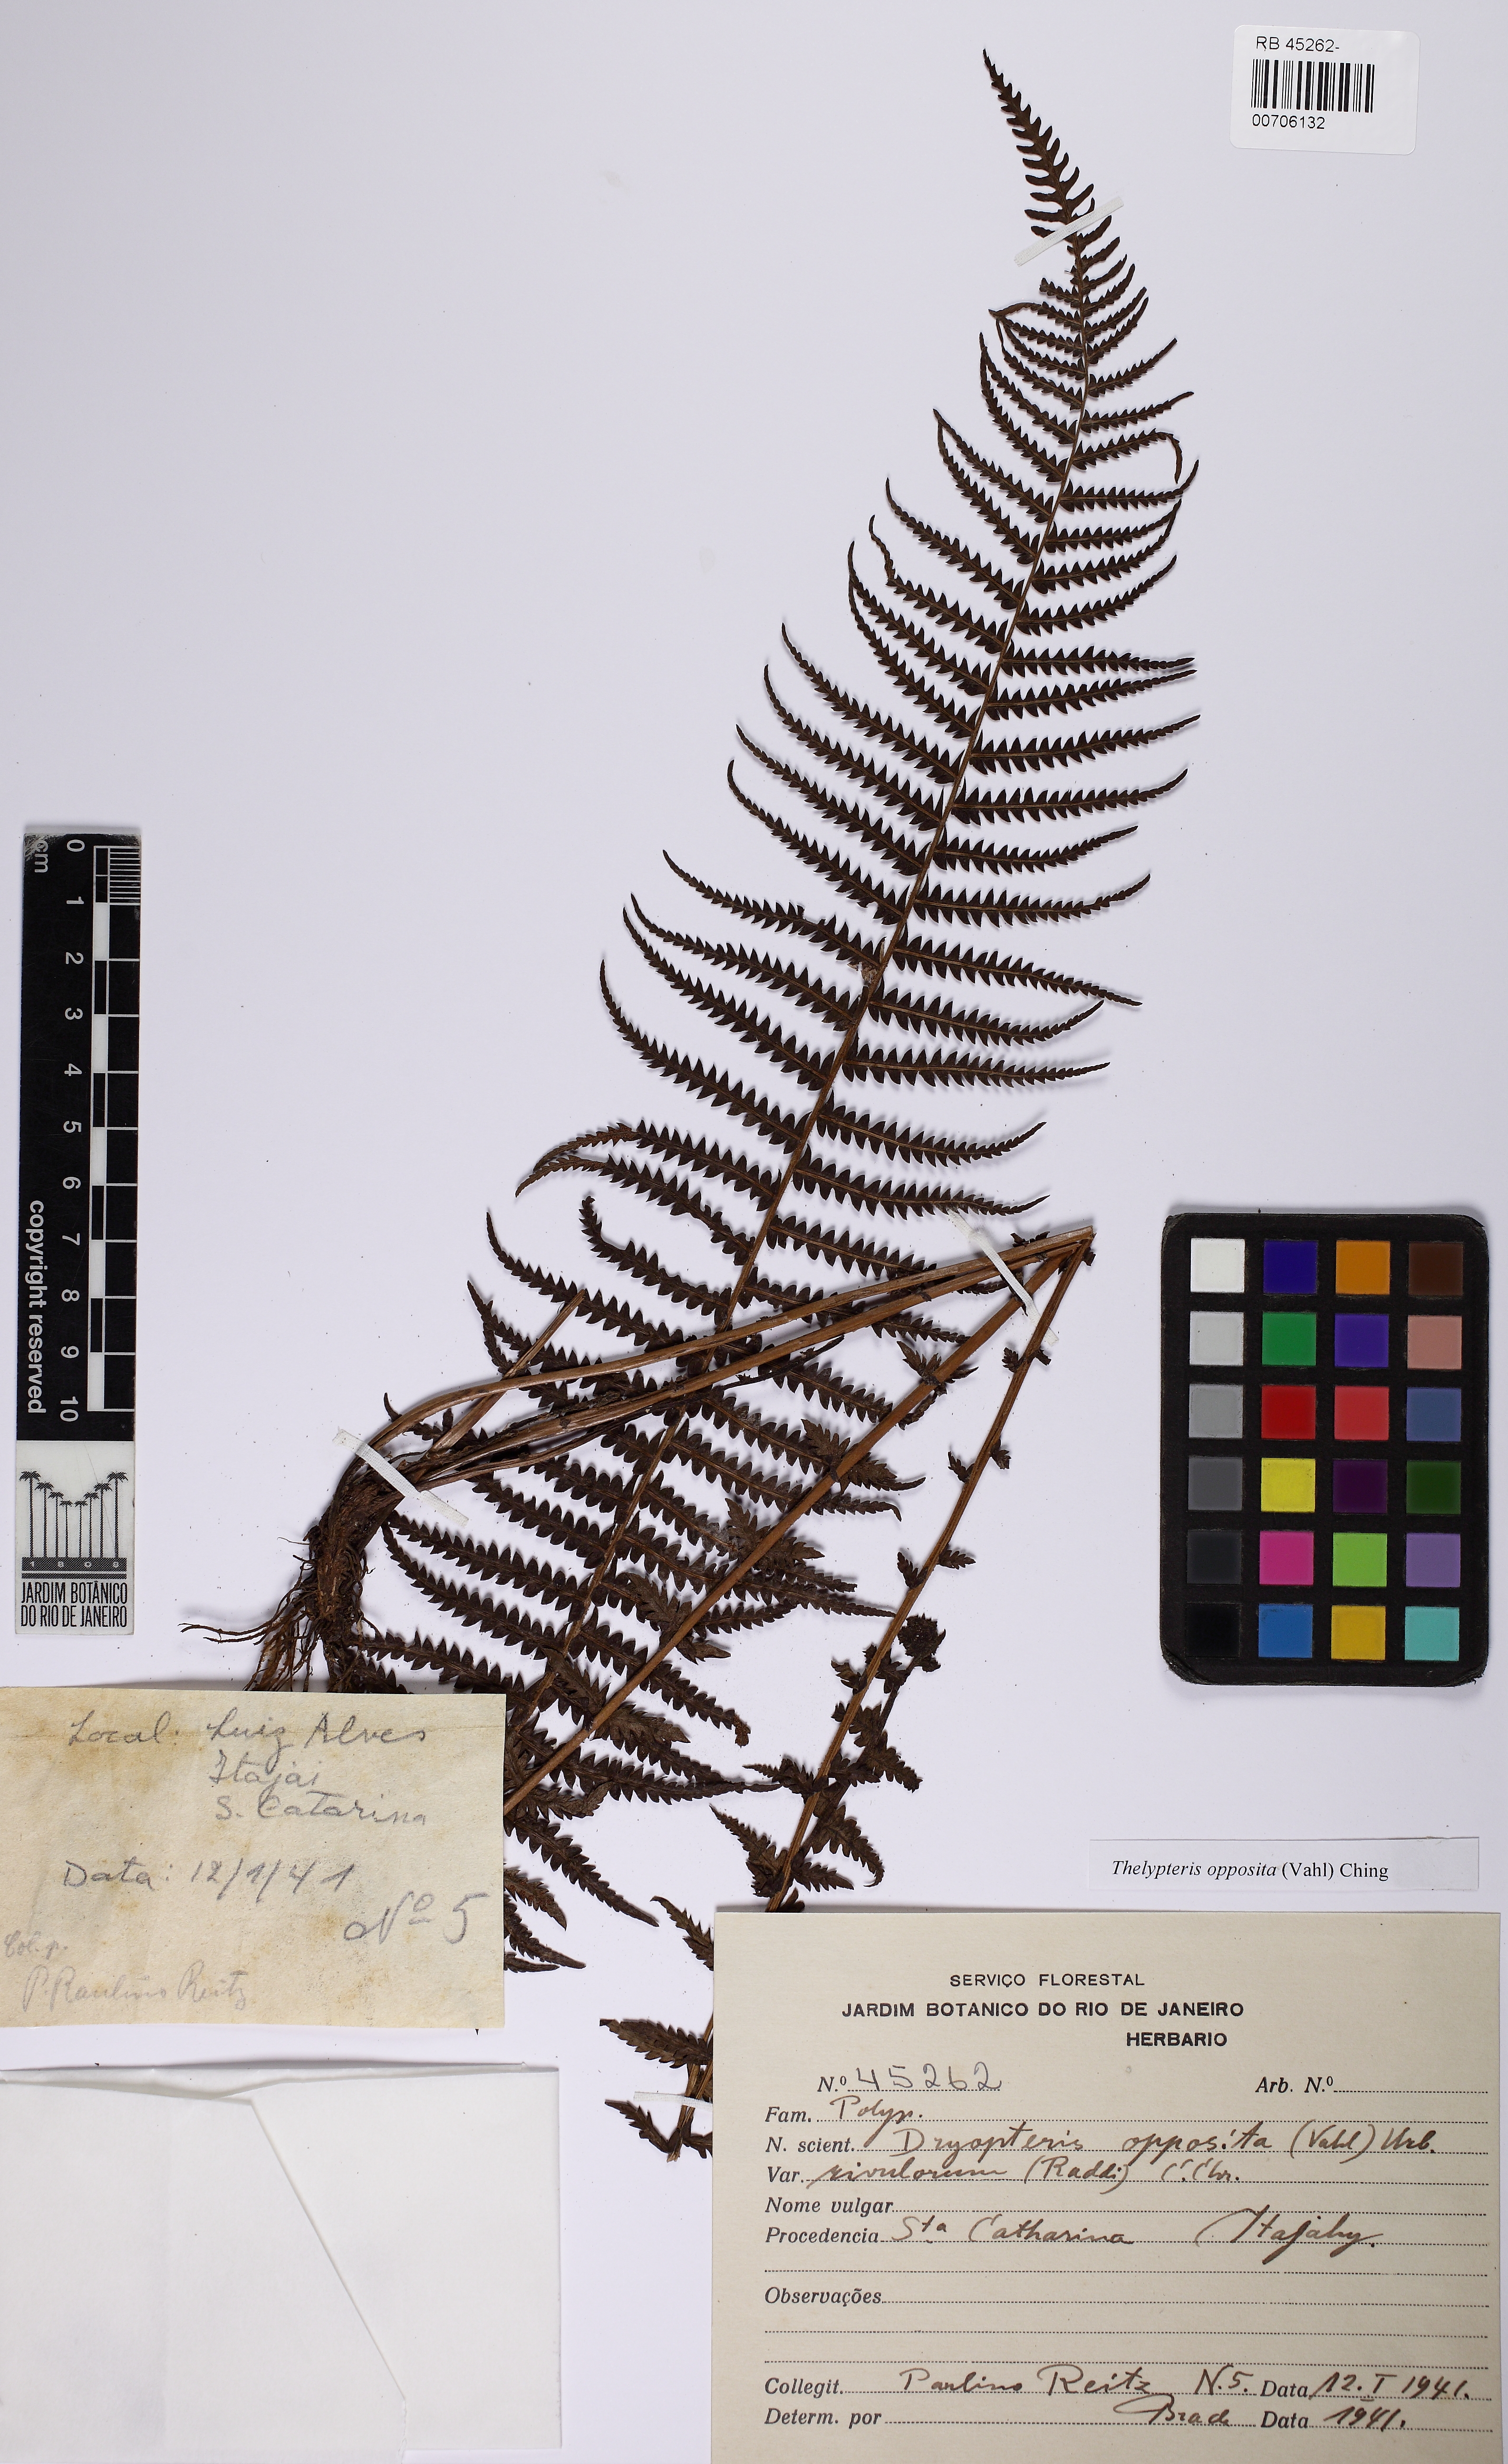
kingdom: Plantae
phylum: Tracheophyta
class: Polypodiopsida
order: Polypodiales
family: Thelypteridaceae
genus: Amauropelta
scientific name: Amauropelta opposita
